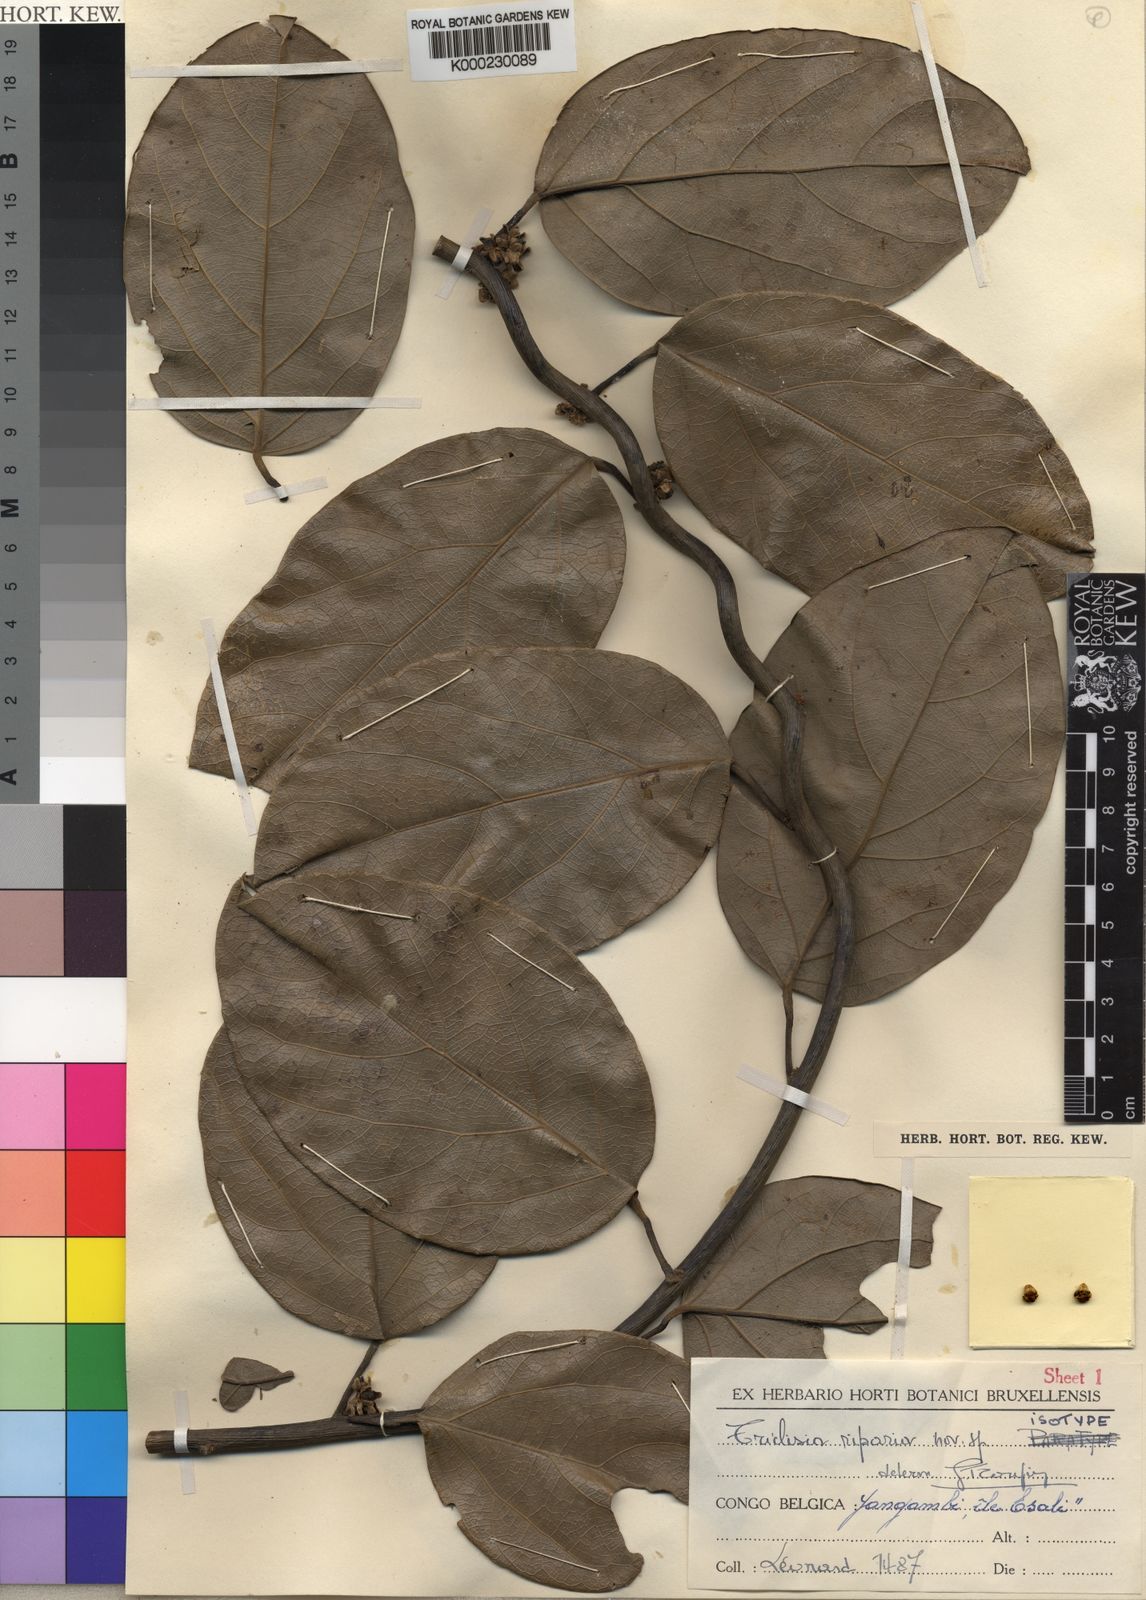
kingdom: Plantae
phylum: Tracheophyta
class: Magnoliopsida
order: Ranunculales
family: Menispermaceae
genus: Triclisia
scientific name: Triclisia riparia
